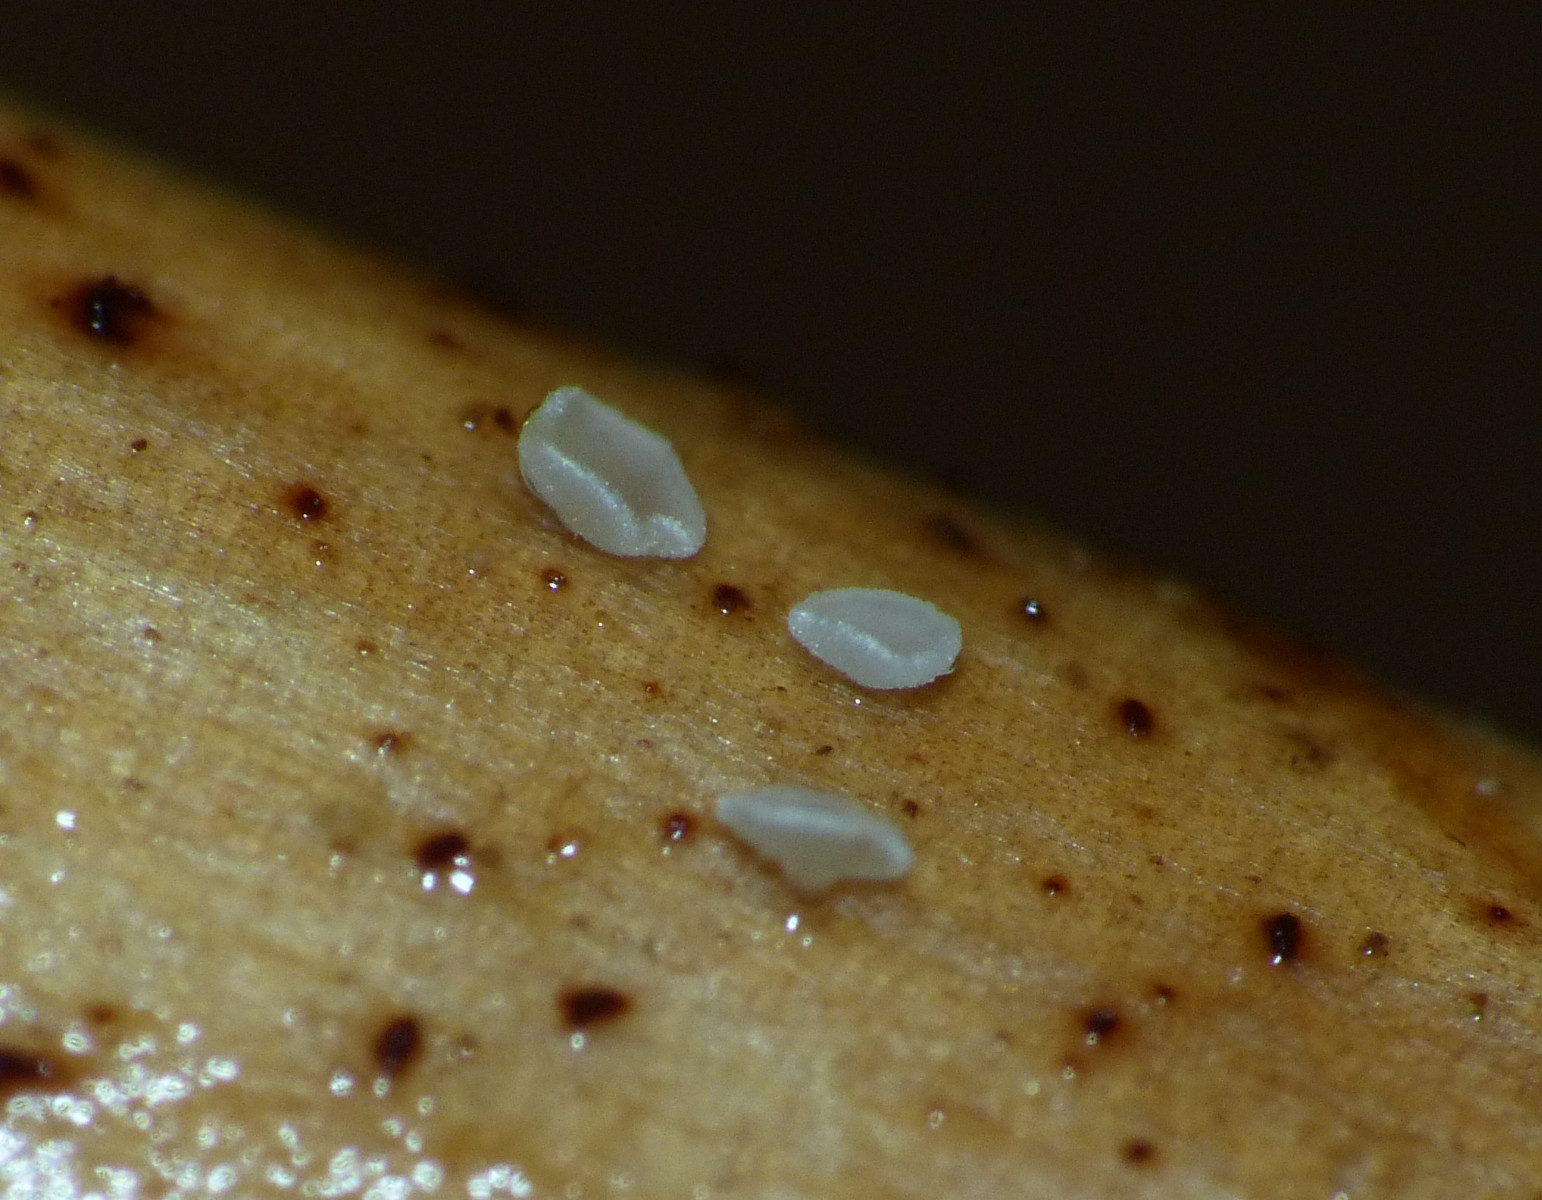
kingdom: Fungi
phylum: Ascomycota
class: Leotiomycetes
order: Helotiales
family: Pezizellaceae
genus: Psilachnum
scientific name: Psilachnum
